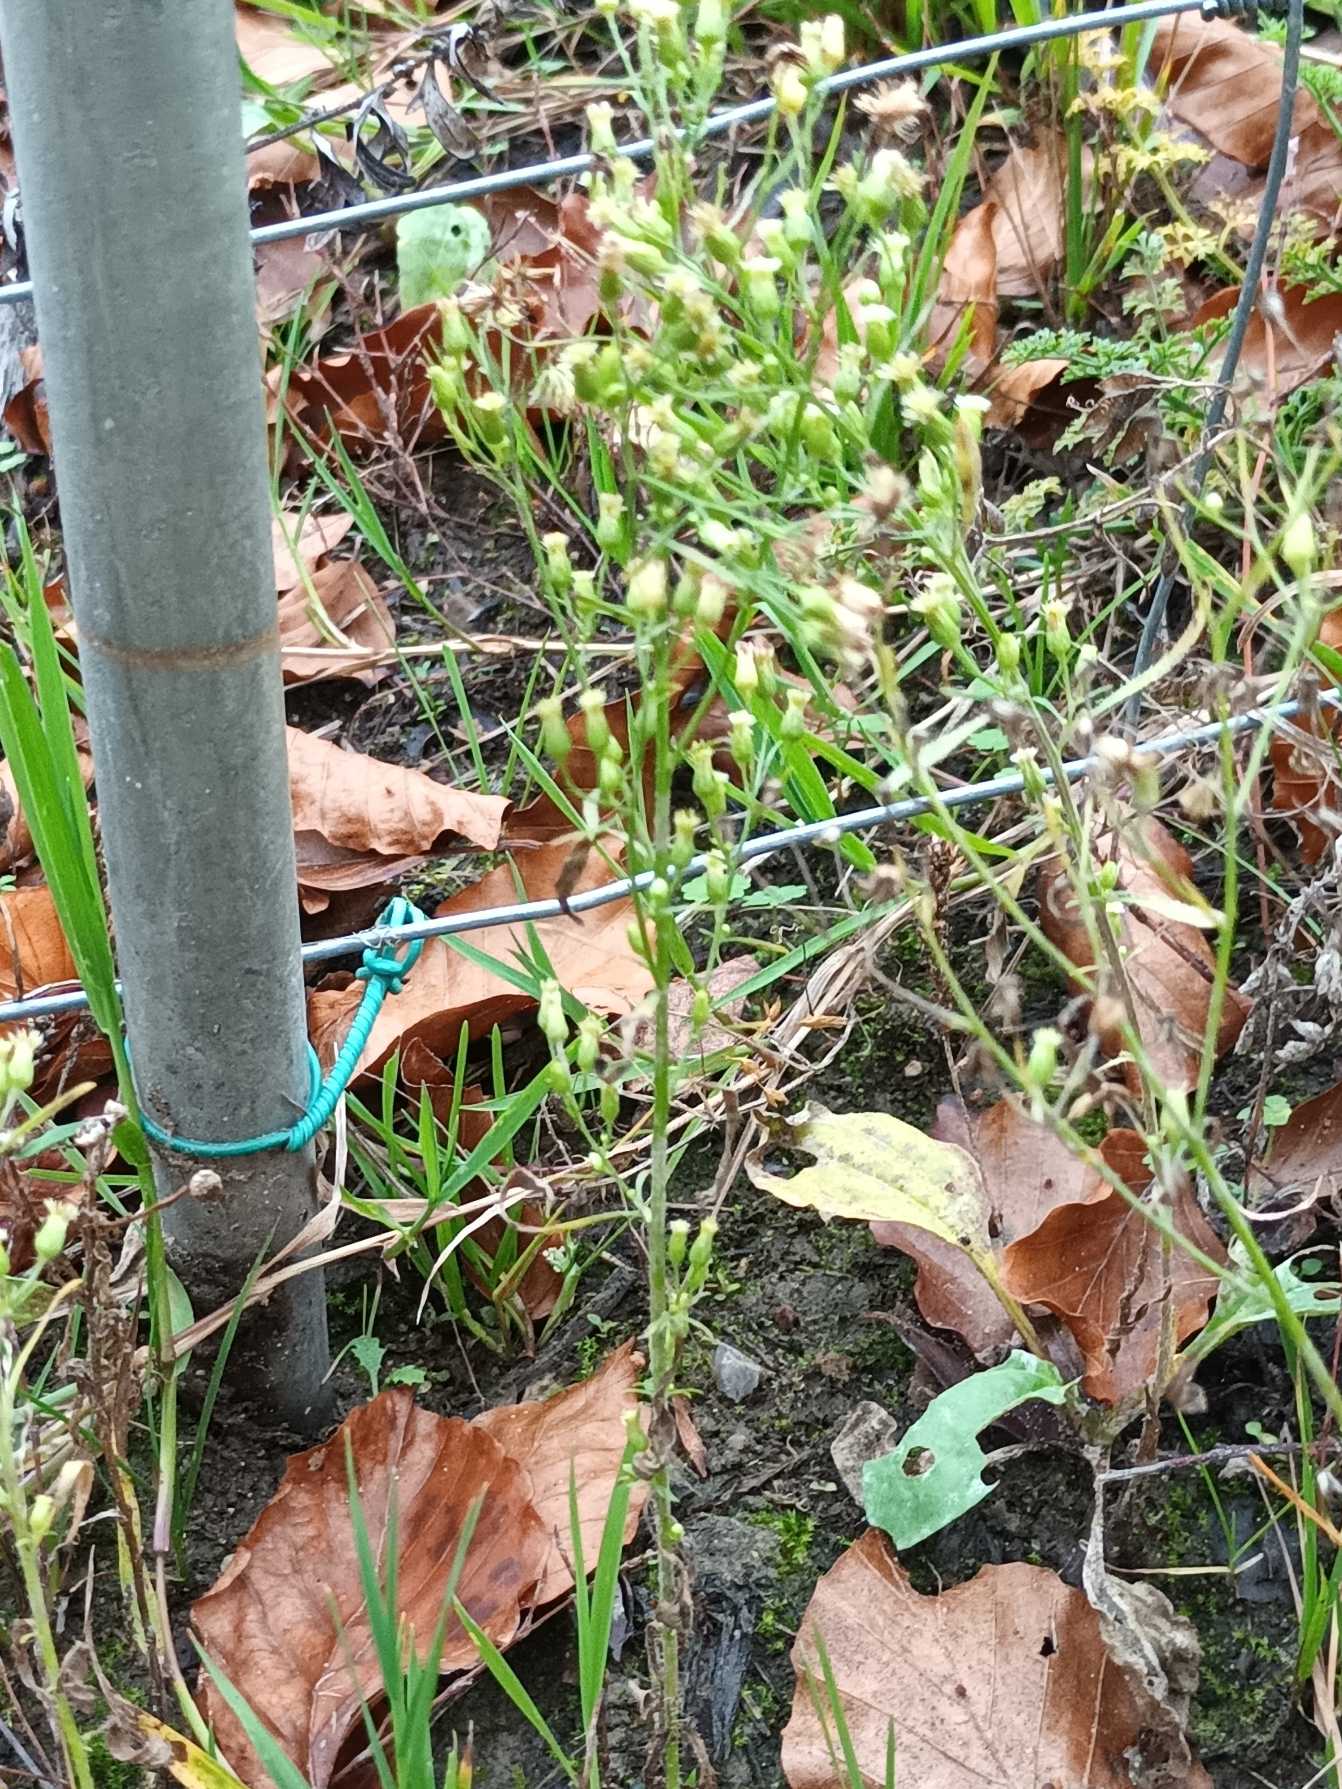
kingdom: Plantae
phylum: Tracheophyta
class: Magnoliopsida
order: Asterales
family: Asteraceae
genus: Erigeron
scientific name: Erigeron canadensis
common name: Kanadisk bakkestjerne
